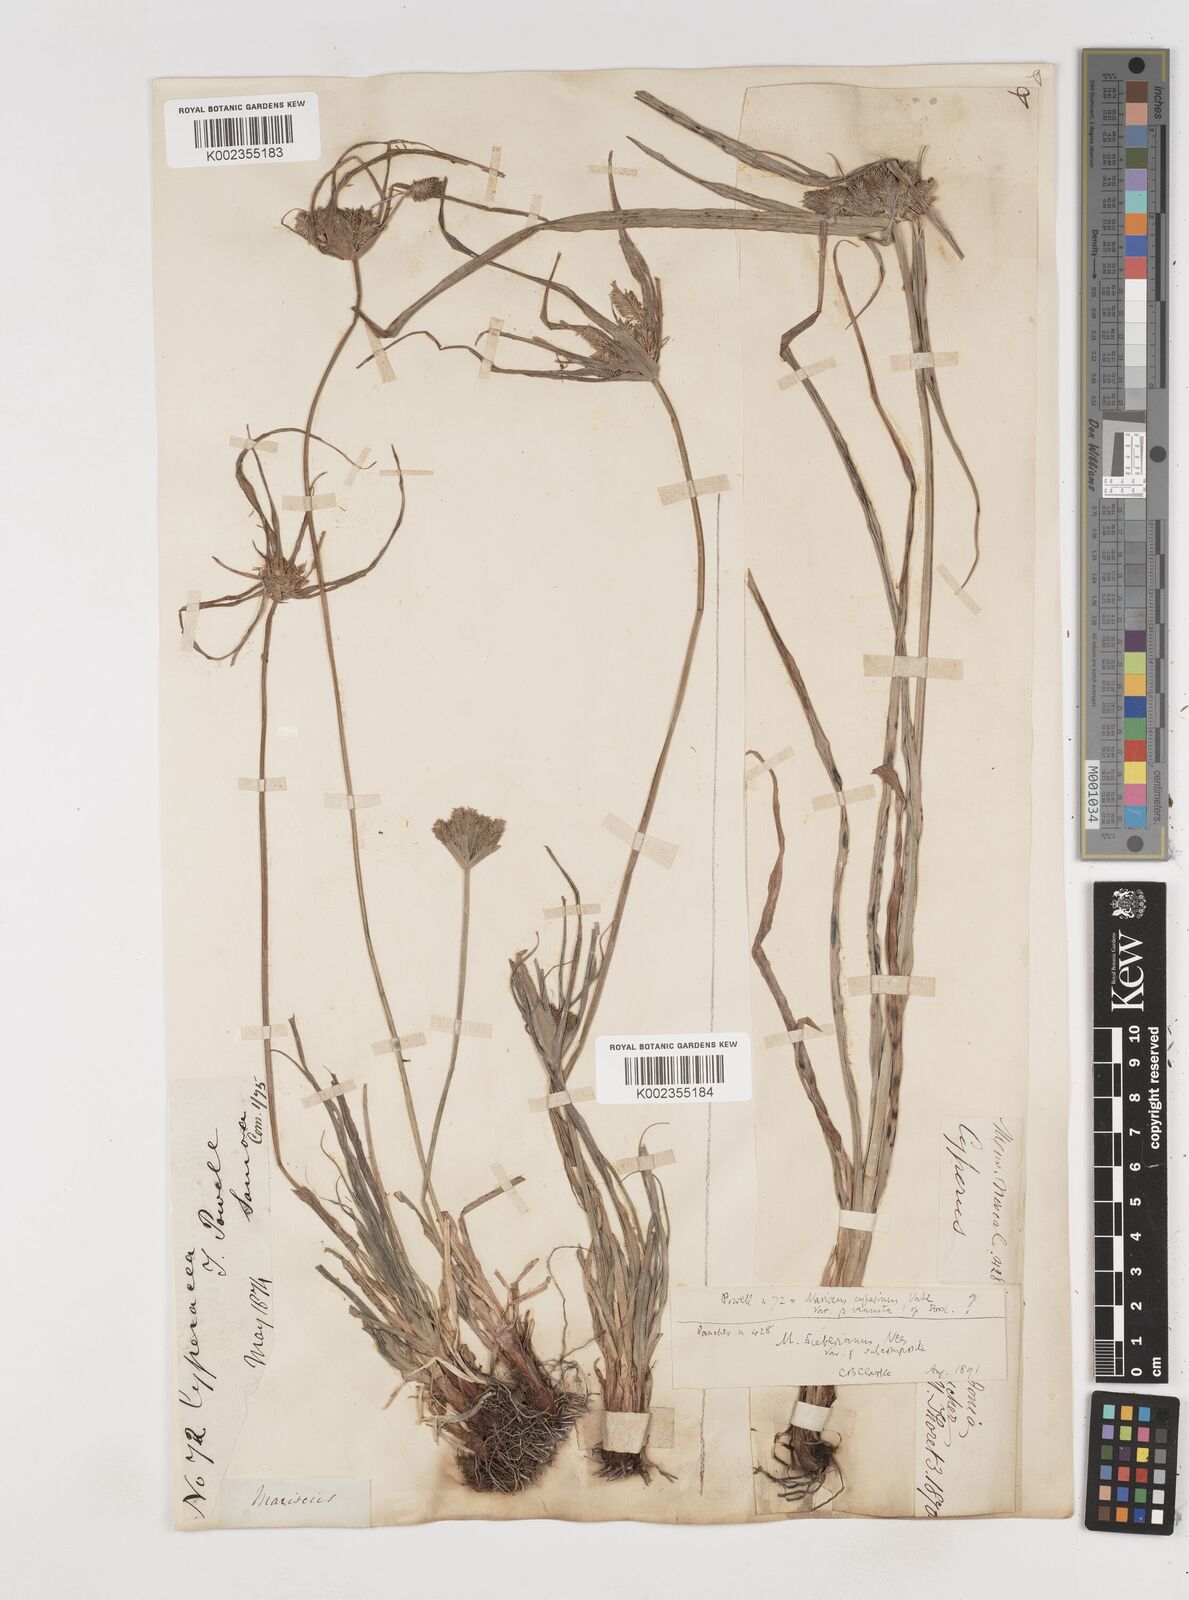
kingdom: Plantae
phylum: Tracheophyta
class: Liliopsida
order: Poales
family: Cyperaceae
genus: Cyperus
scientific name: Cyperus cyperoides
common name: Pacific island flat sedge
